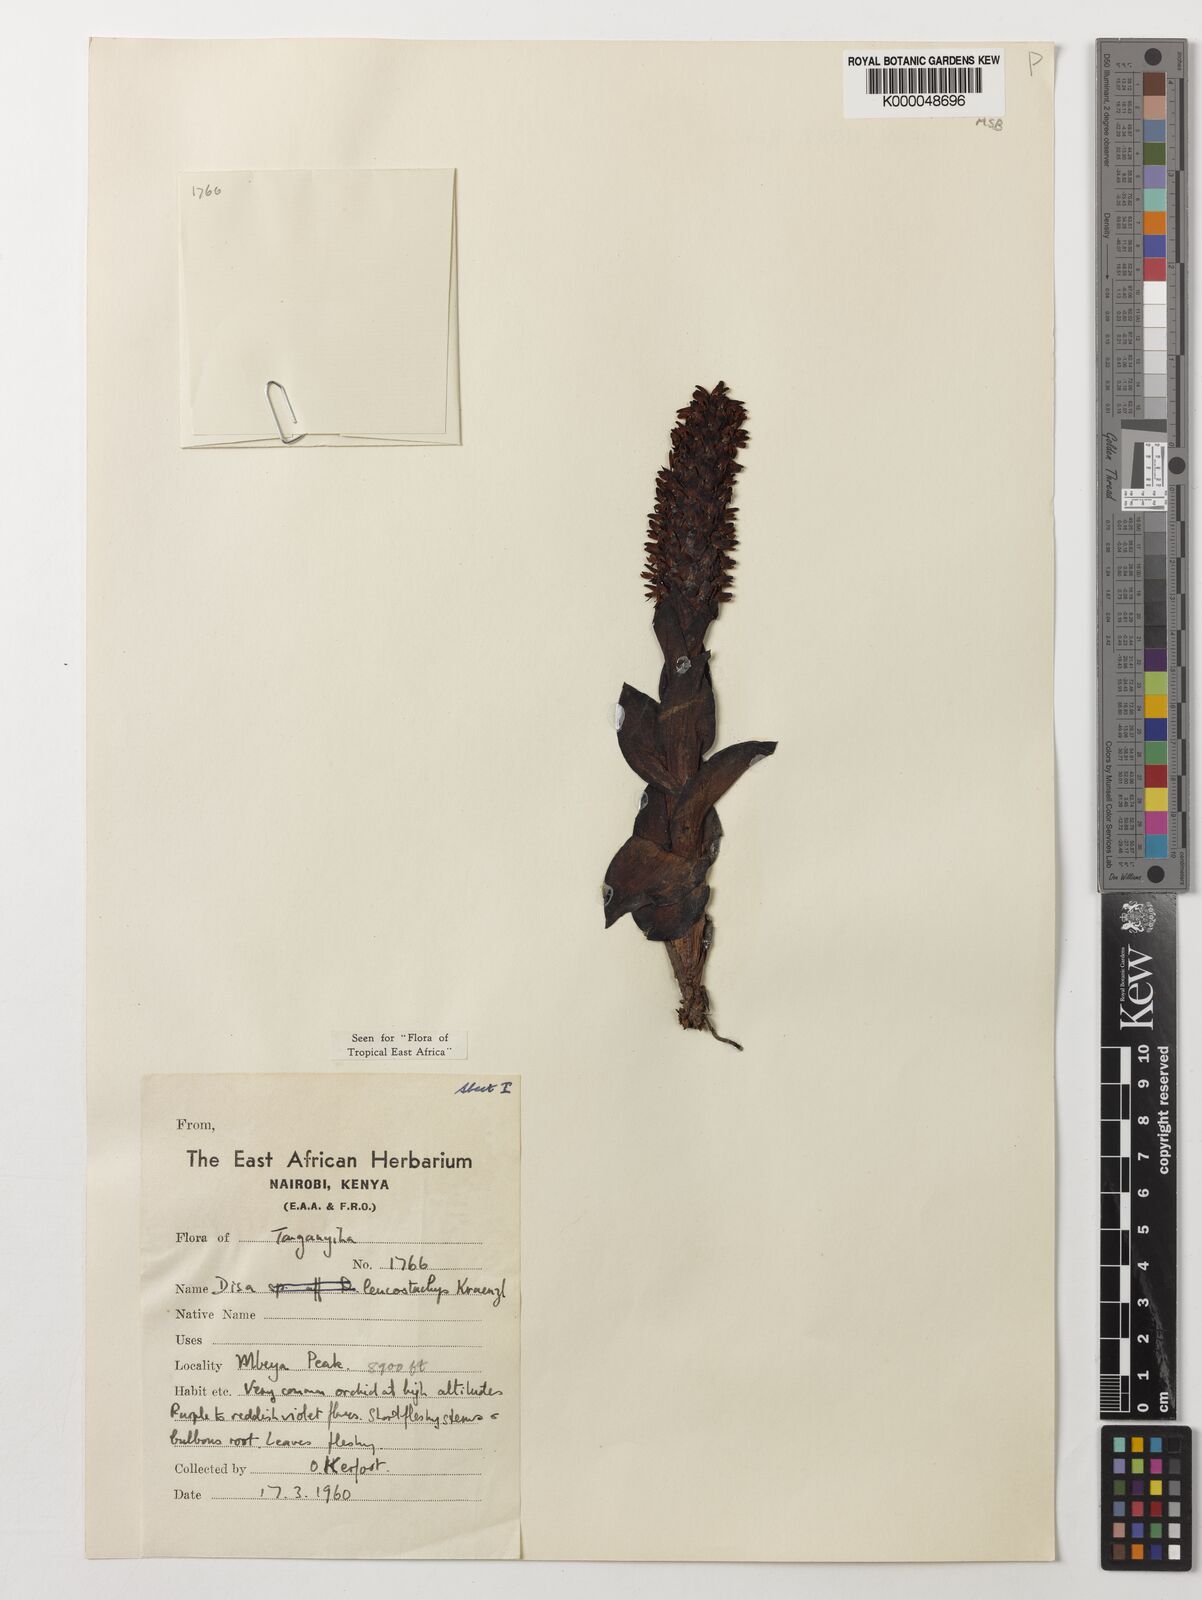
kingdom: Plantae
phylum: Tracheophyta
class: Liliopsida
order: Asparagales
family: Orchidaceae
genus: Disa
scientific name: Disa fragrans
